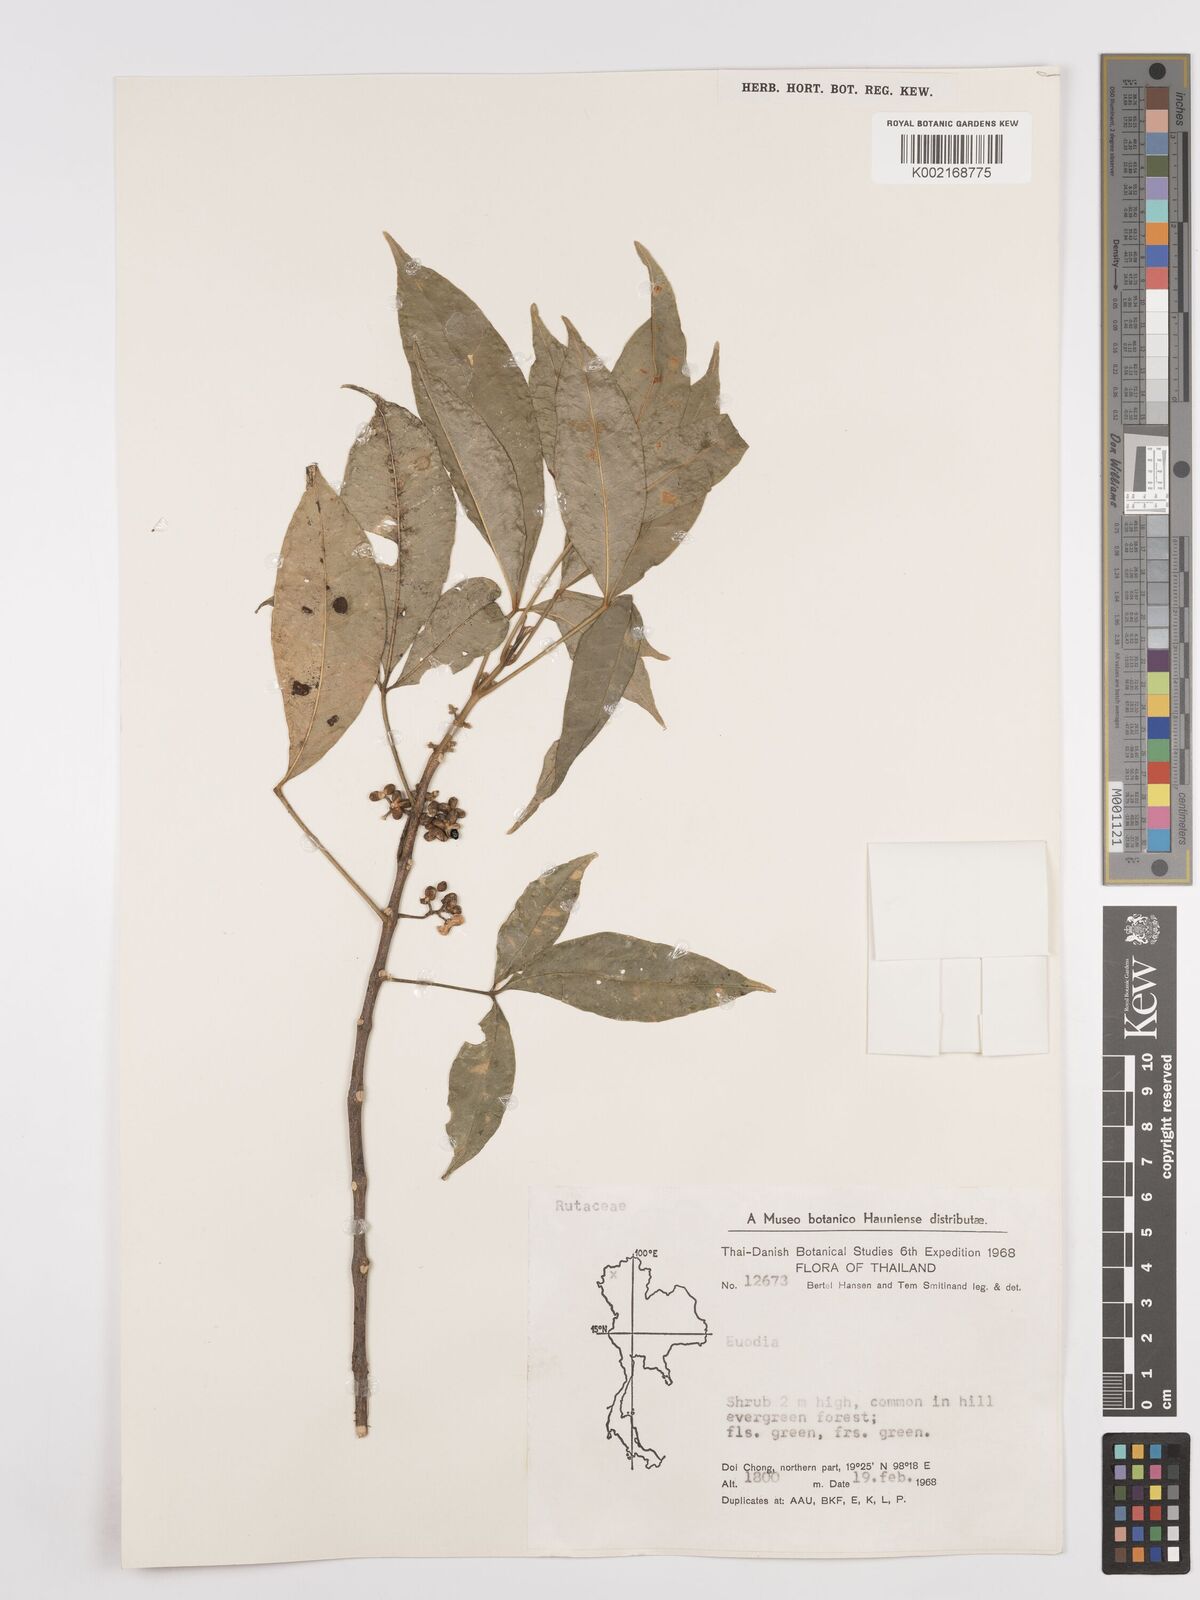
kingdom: Plantae
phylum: Tracheophyta
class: Magnoliopsida
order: Sapindales
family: Rutaceae
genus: Euodia
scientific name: Euodia
